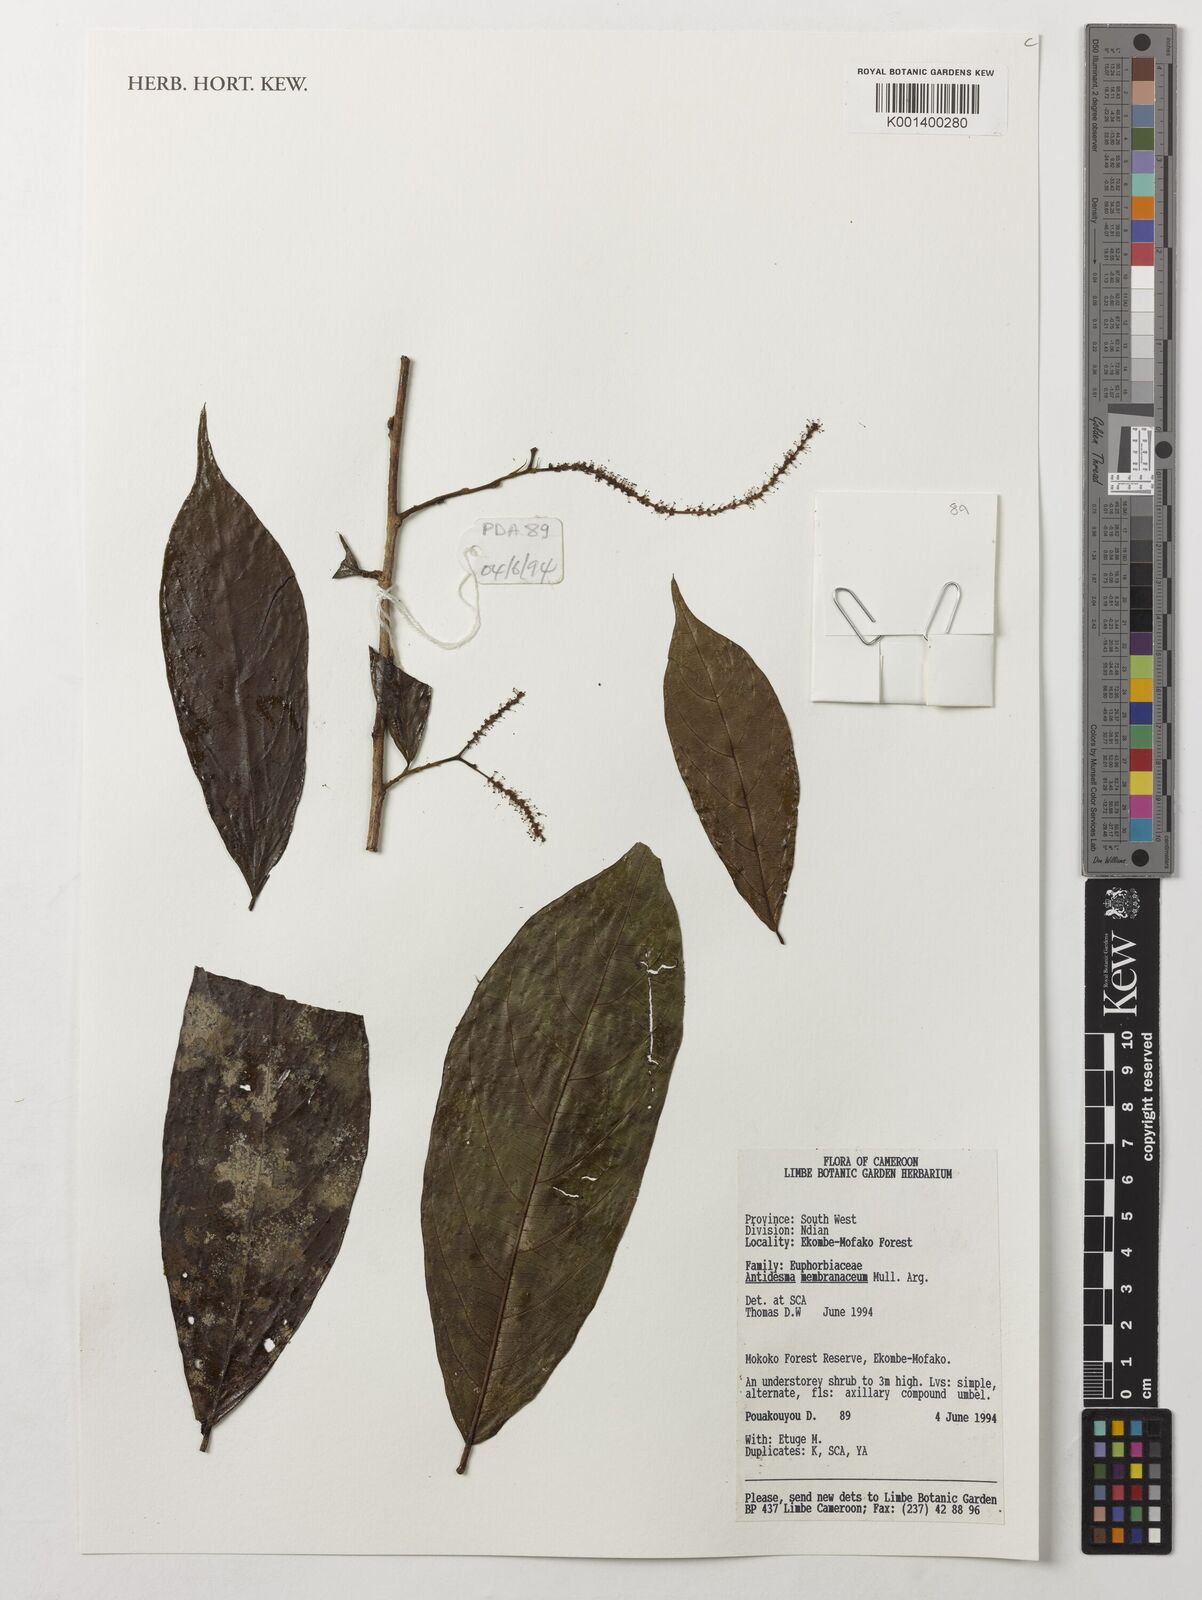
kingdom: Plantae
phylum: Tracheophyta
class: Magnoliopsida
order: Malpighiales
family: Phyllanthaceae
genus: Antidesma
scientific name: Antidesma membranaceum
